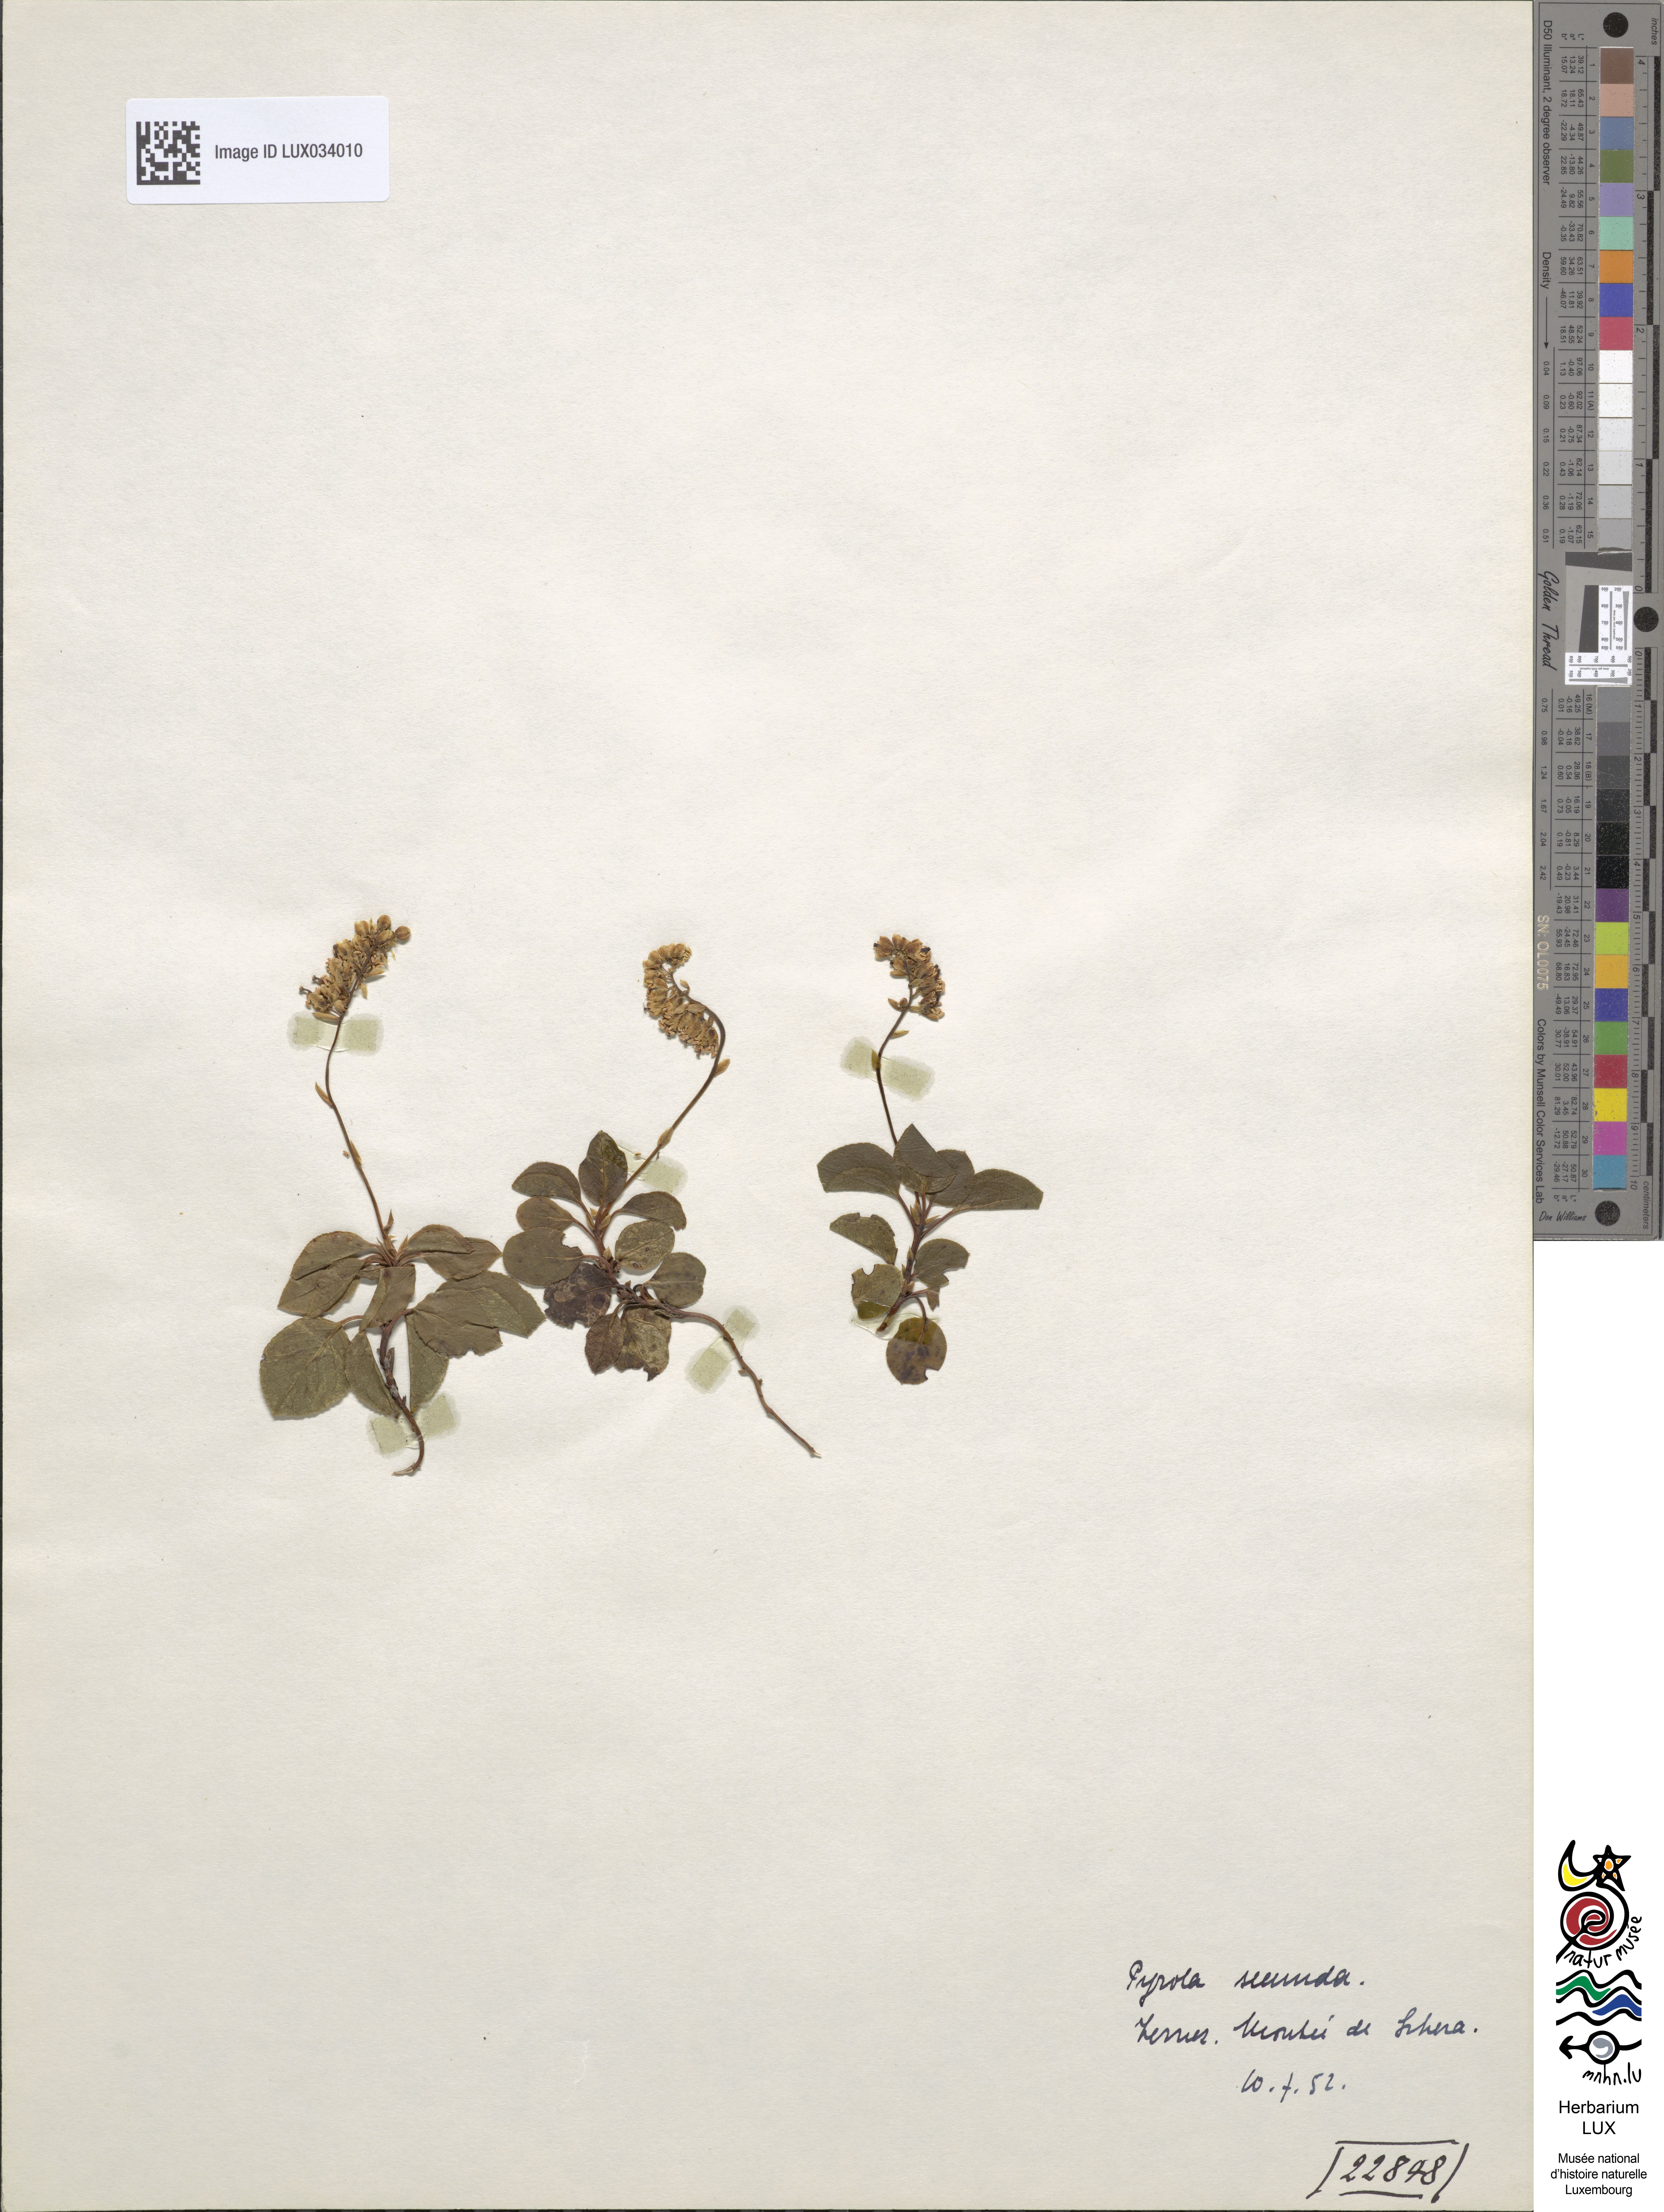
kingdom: Plantae
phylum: Tracheophyta
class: Magnoliopsida
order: Ericales
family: Ericaceae
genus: Orthilia
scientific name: Orthilia secunda
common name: One-sided orthilia
